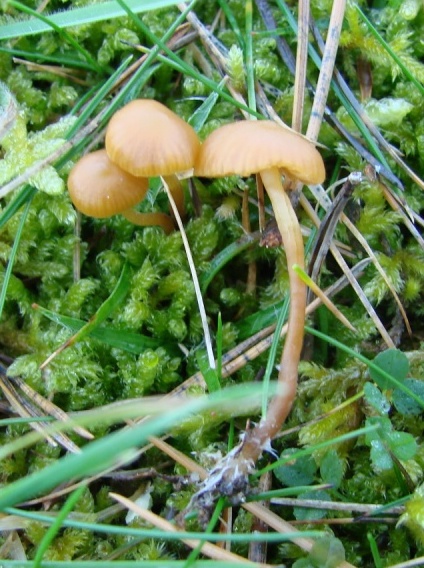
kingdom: Fungi
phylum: Basidiomycota
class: Agaricomycetes
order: Agaricales
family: Hymenogastraceae
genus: Galerina
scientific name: Galerina vittiformis
